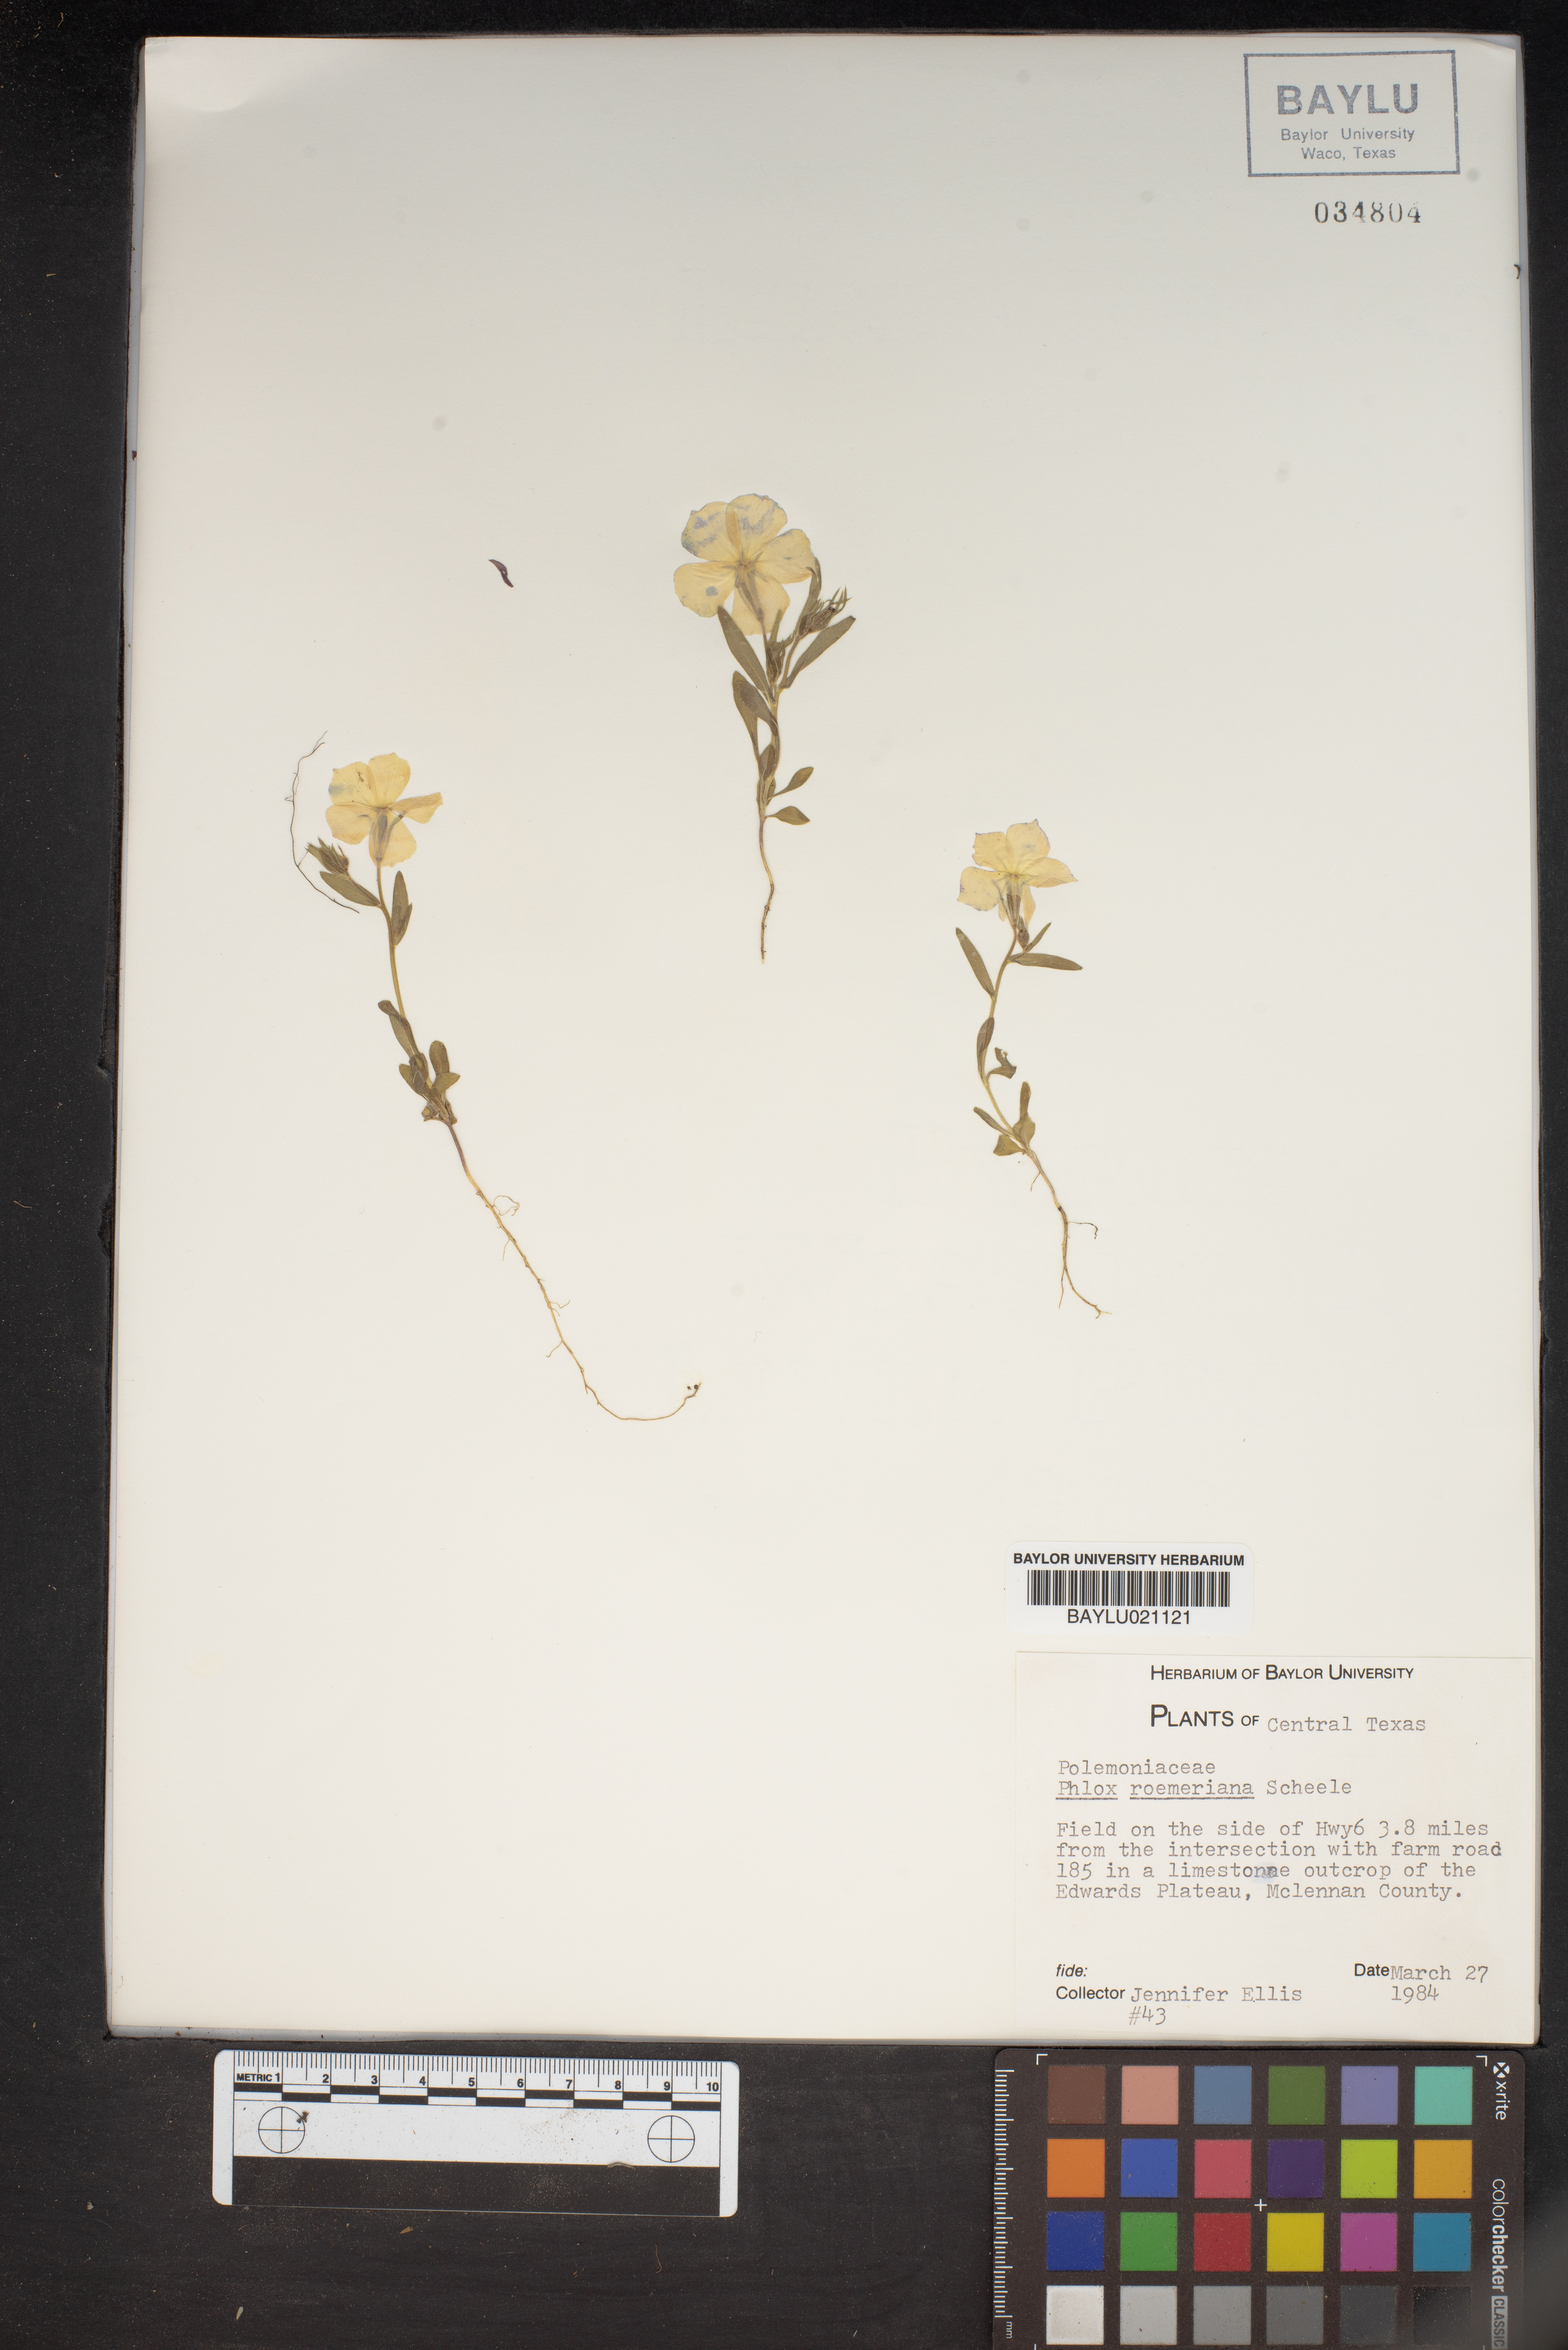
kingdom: Plantae
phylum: Tracheophyta
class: Magnoliopsida
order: Ericales
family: Polemoniaceae
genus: Phlox
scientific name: Phlox roemeriana
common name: Roemer's phlox
